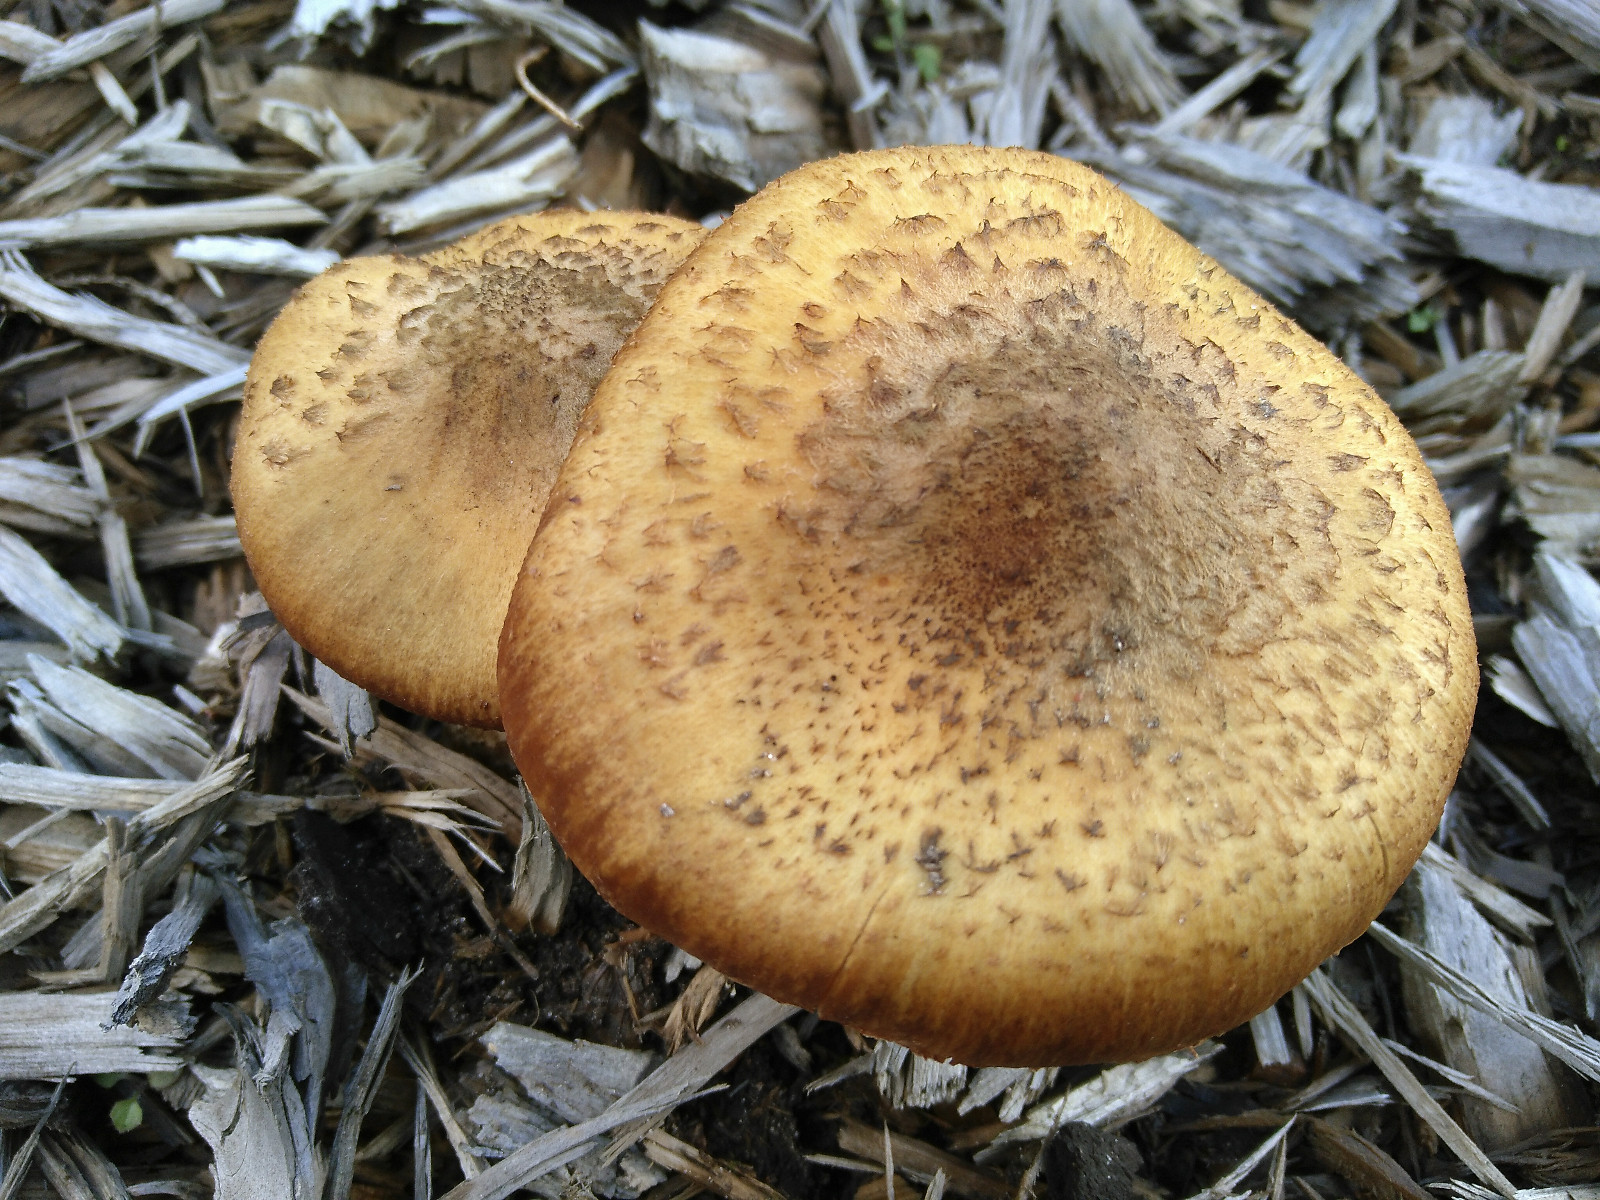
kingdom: Fungi
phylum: Basidiomycota
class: Agaricomycetes
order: Agaricales
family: Physalacriaceae
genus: Armillaria
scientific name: Armillaria ostoyae
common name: mørk honningsvamp
